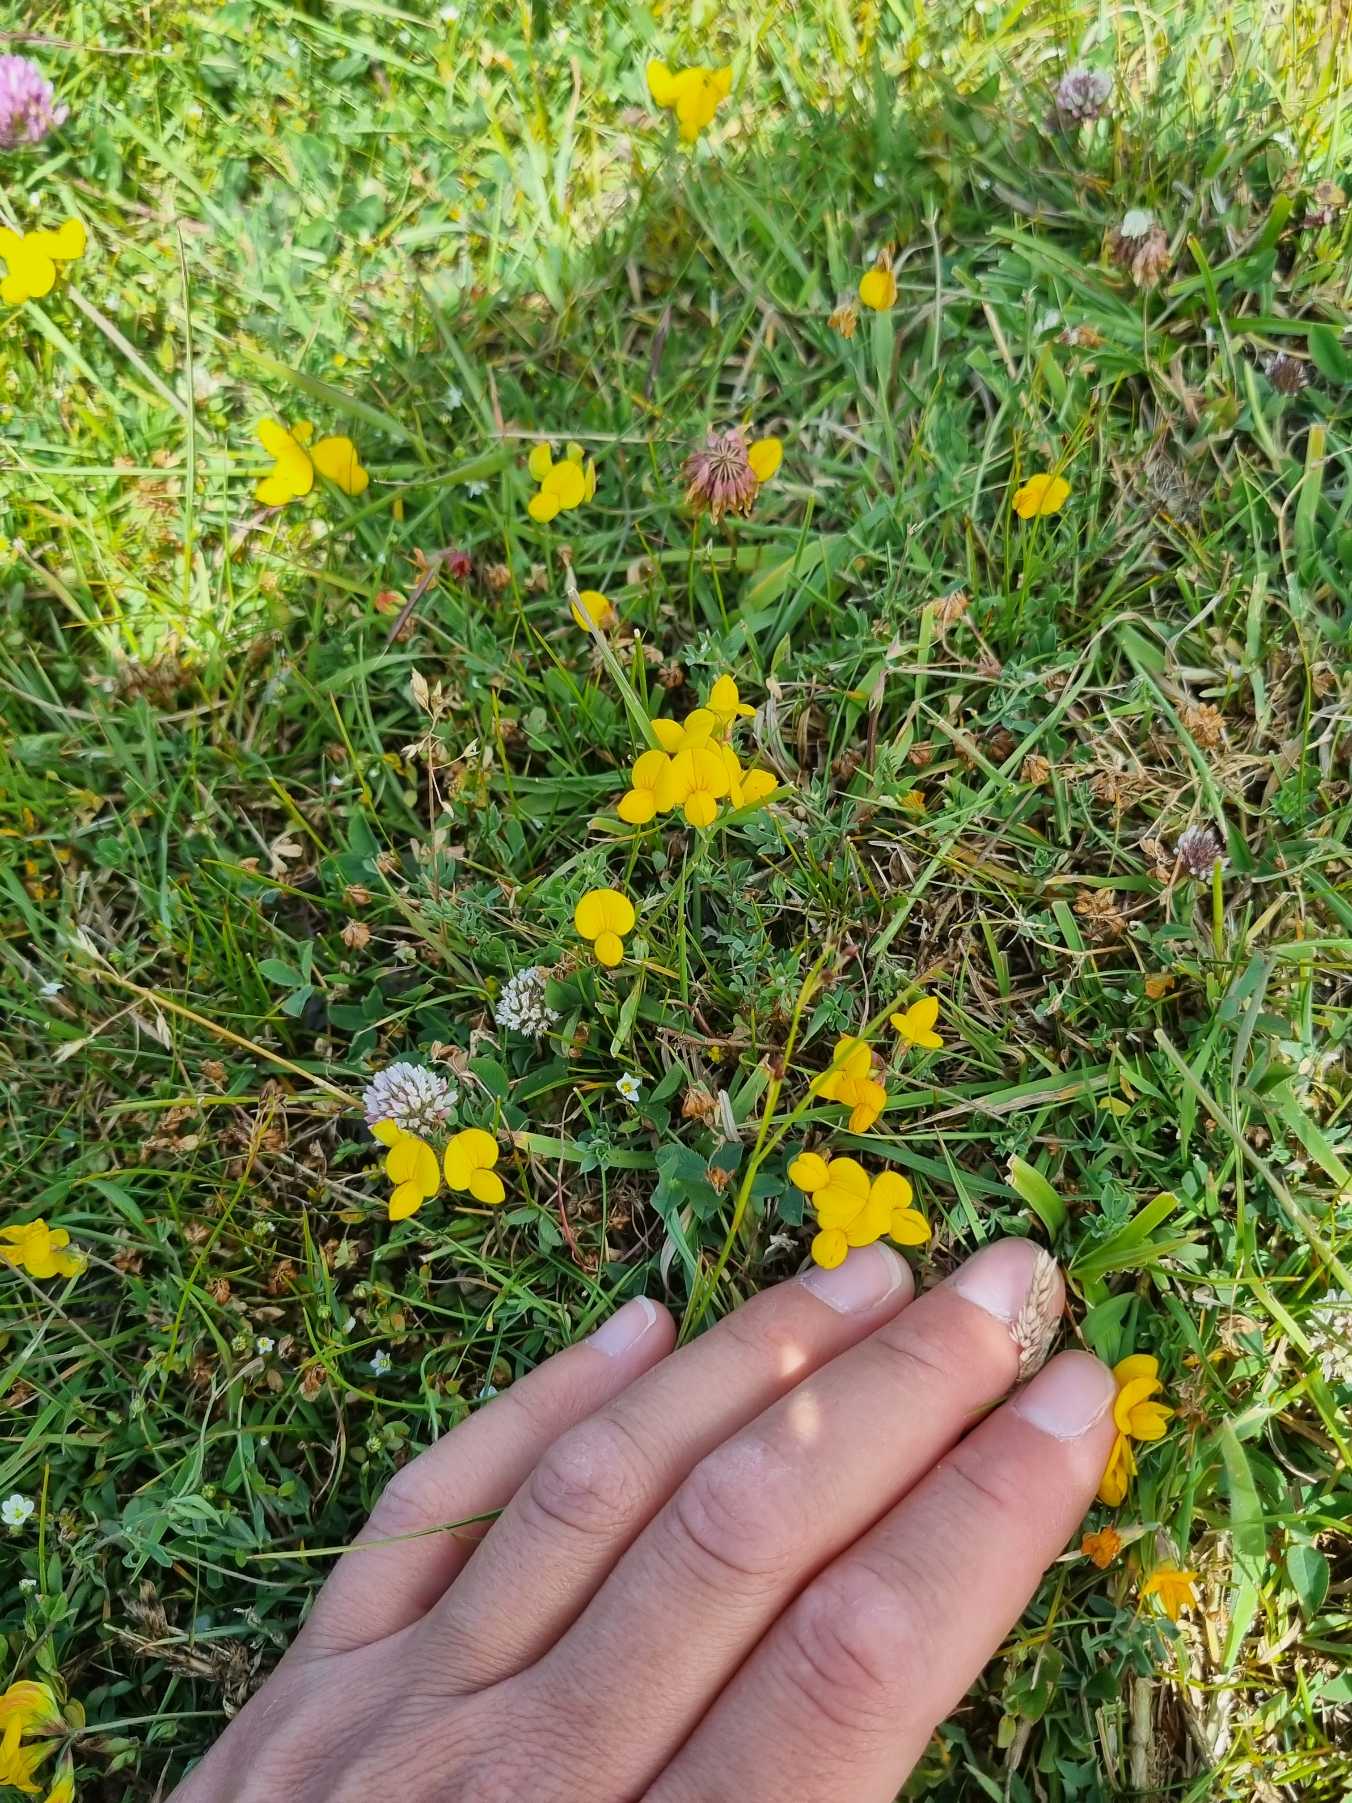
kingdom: Plantae
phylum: Tracheophyta
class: Magnoliopsida
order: Fabales
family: Fabaceae
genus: Lotus
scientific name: Lotus tenuis
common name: Smalbladet kællingetand
